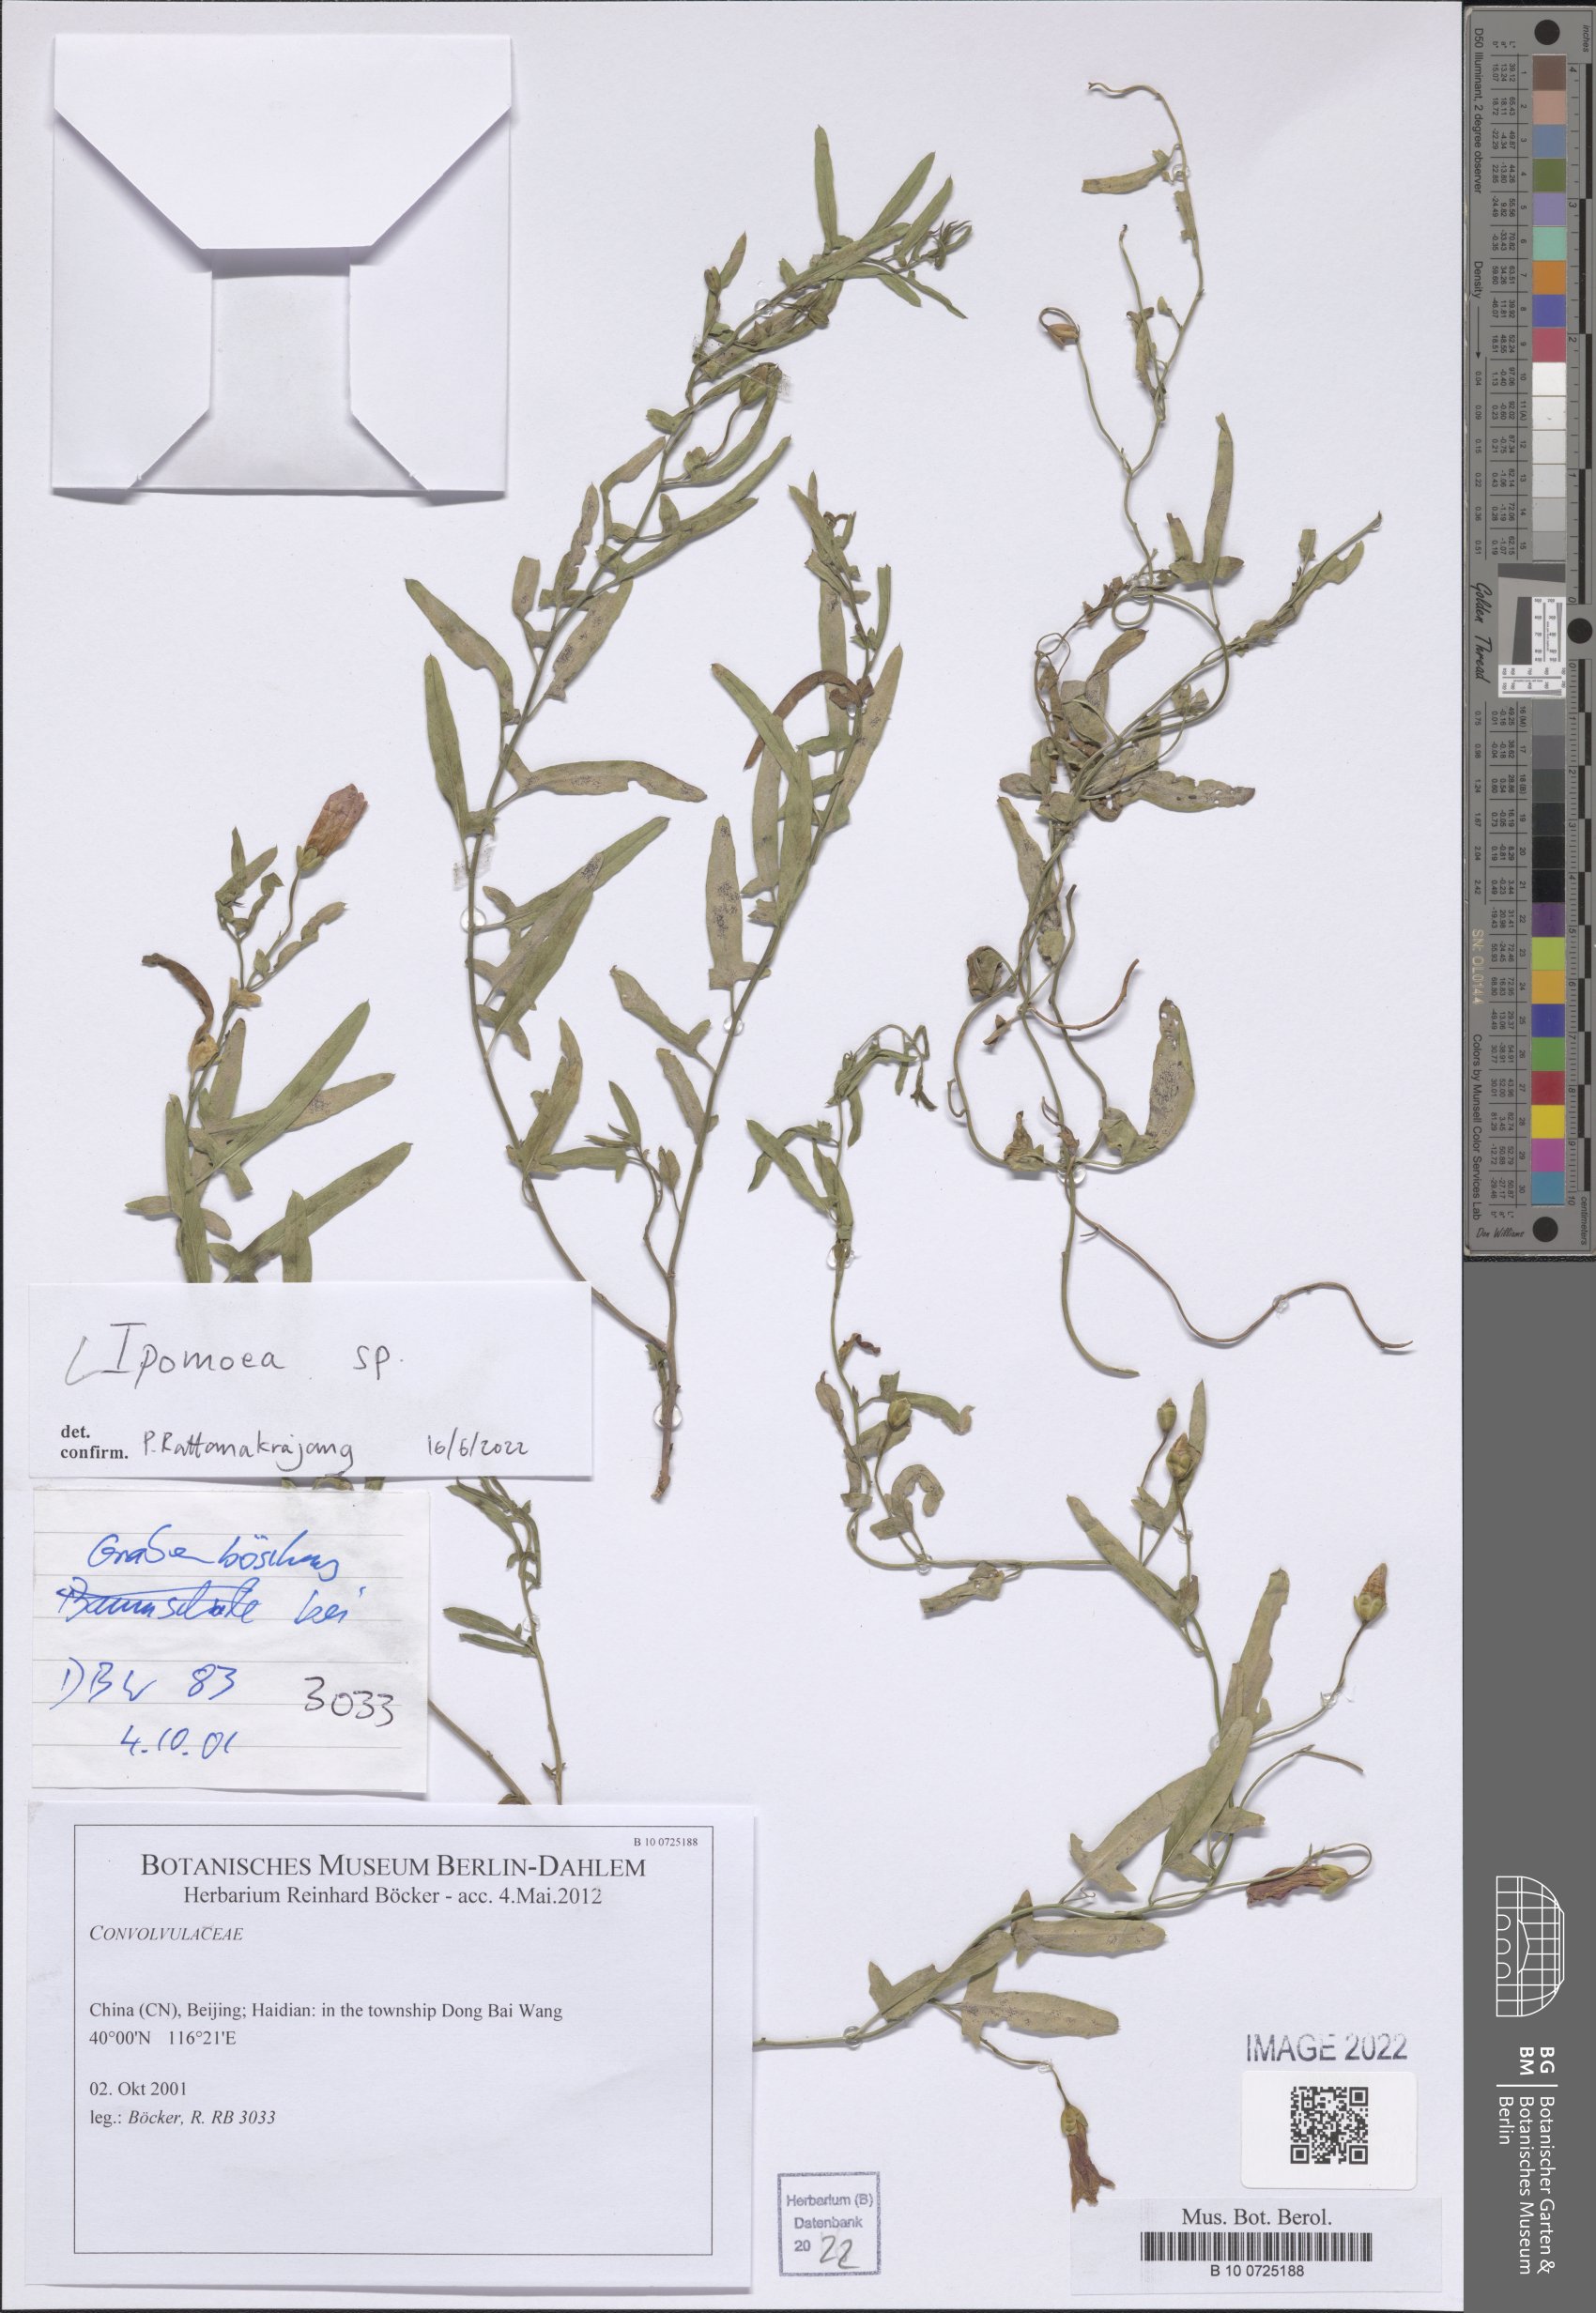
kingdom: Plantae
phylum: Tracheophyta
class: Magnoliopsida
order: Solanales
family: Convolvulaceae
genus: Ipomoea
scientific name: Ipomoea
